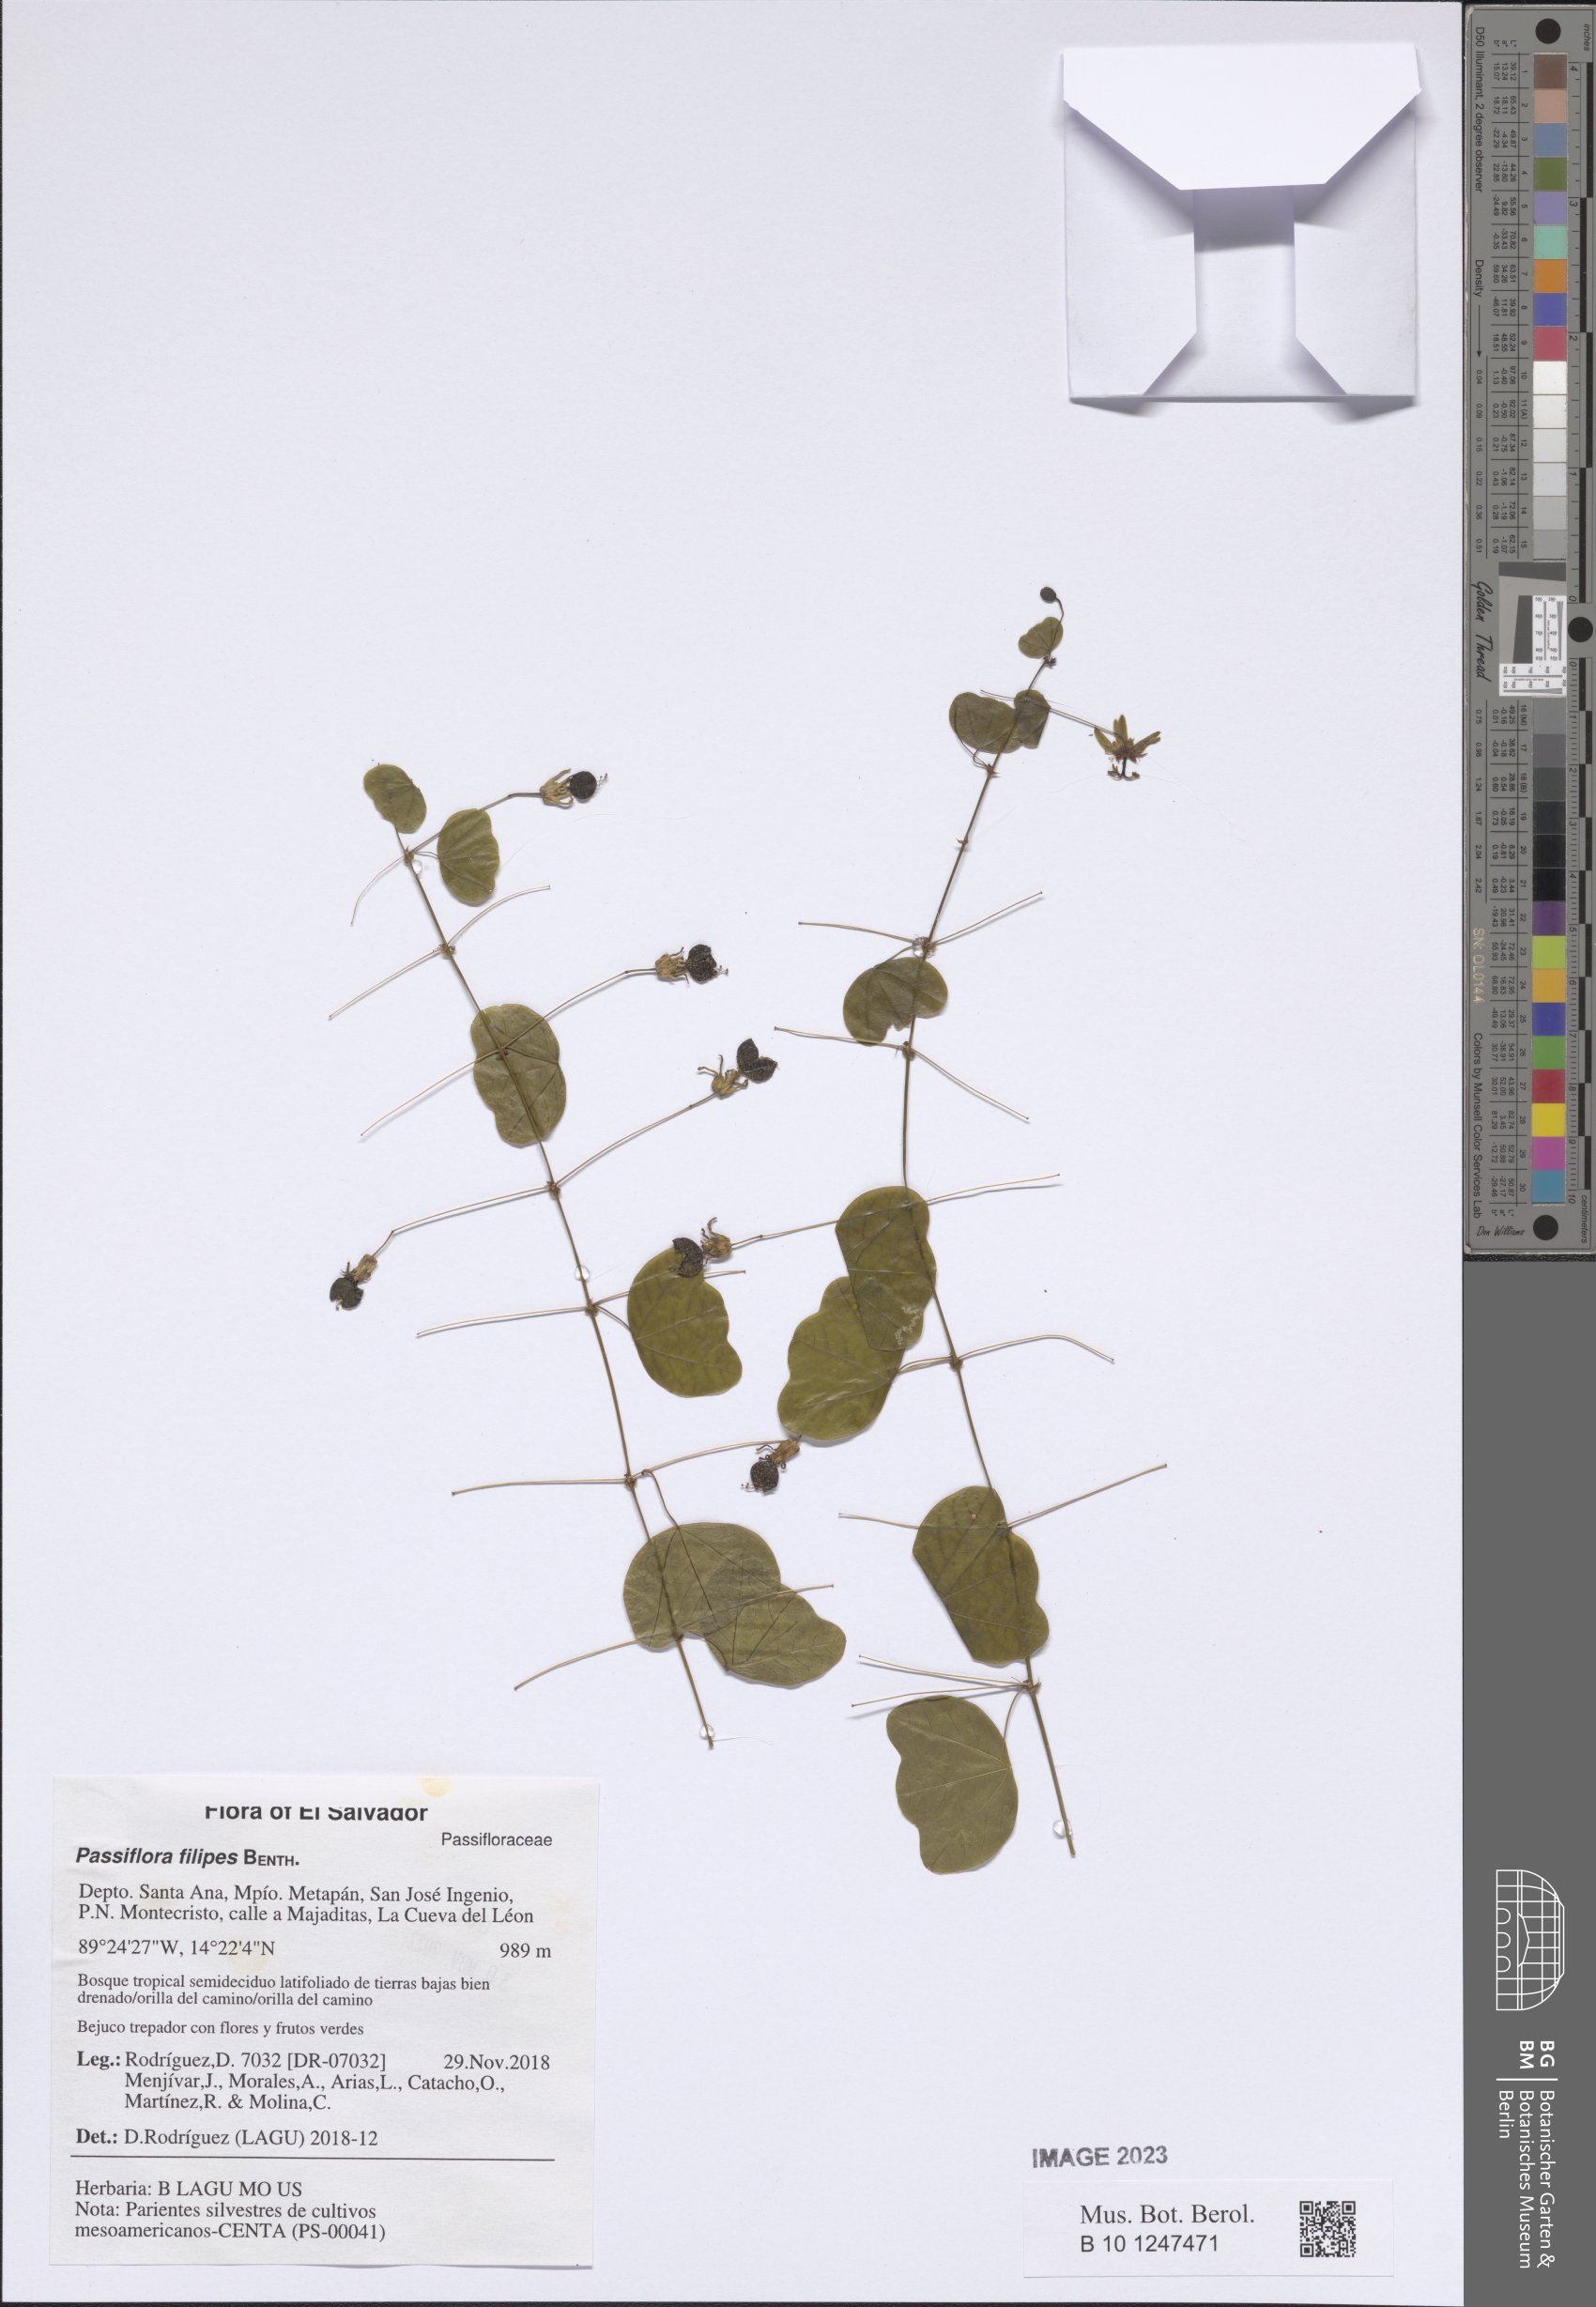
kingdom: Plantae
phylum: Tracheophyta
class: Magnoliopsida
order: Malpighiales
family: Passifloraceae
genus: Passiflora
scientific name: Passiflora filipes
